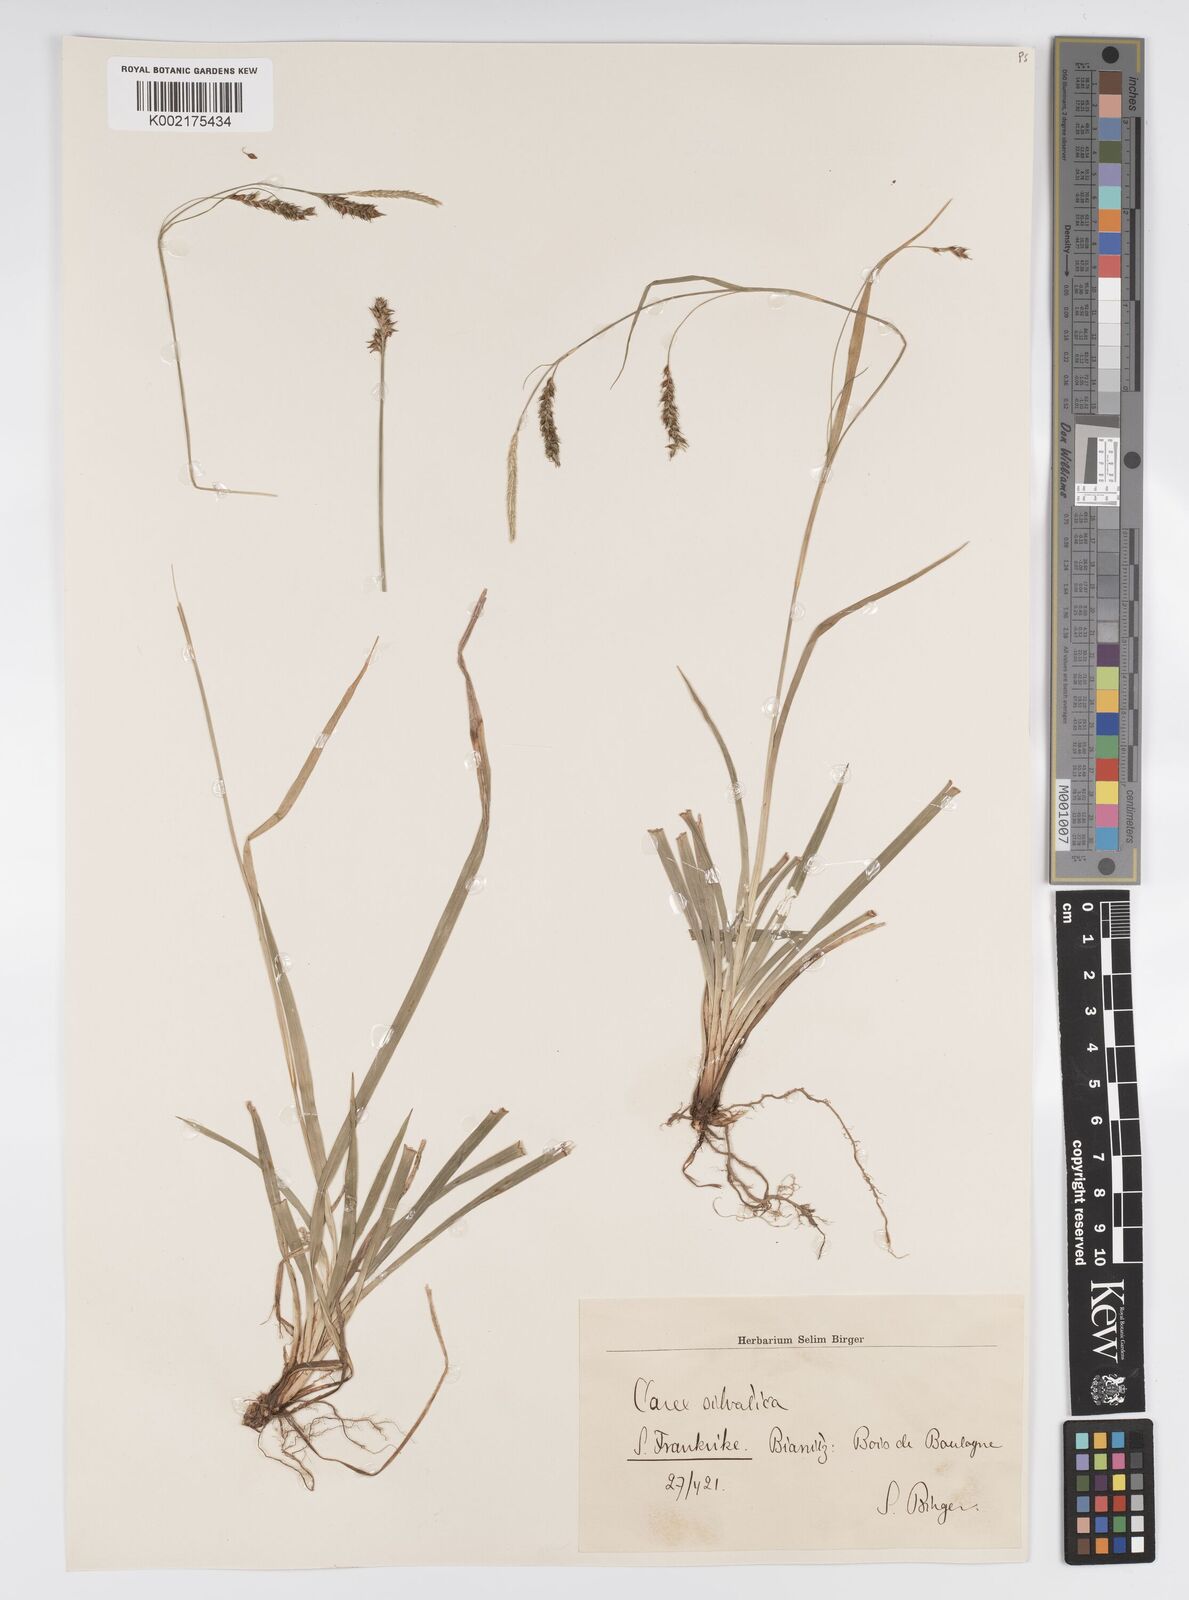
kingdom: Plantae
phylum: Tracheophyta
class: Liliopsida
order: Poales
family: Cyperaceae
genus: Carex
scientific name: Carex sylvatica
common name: Wood-sedge
